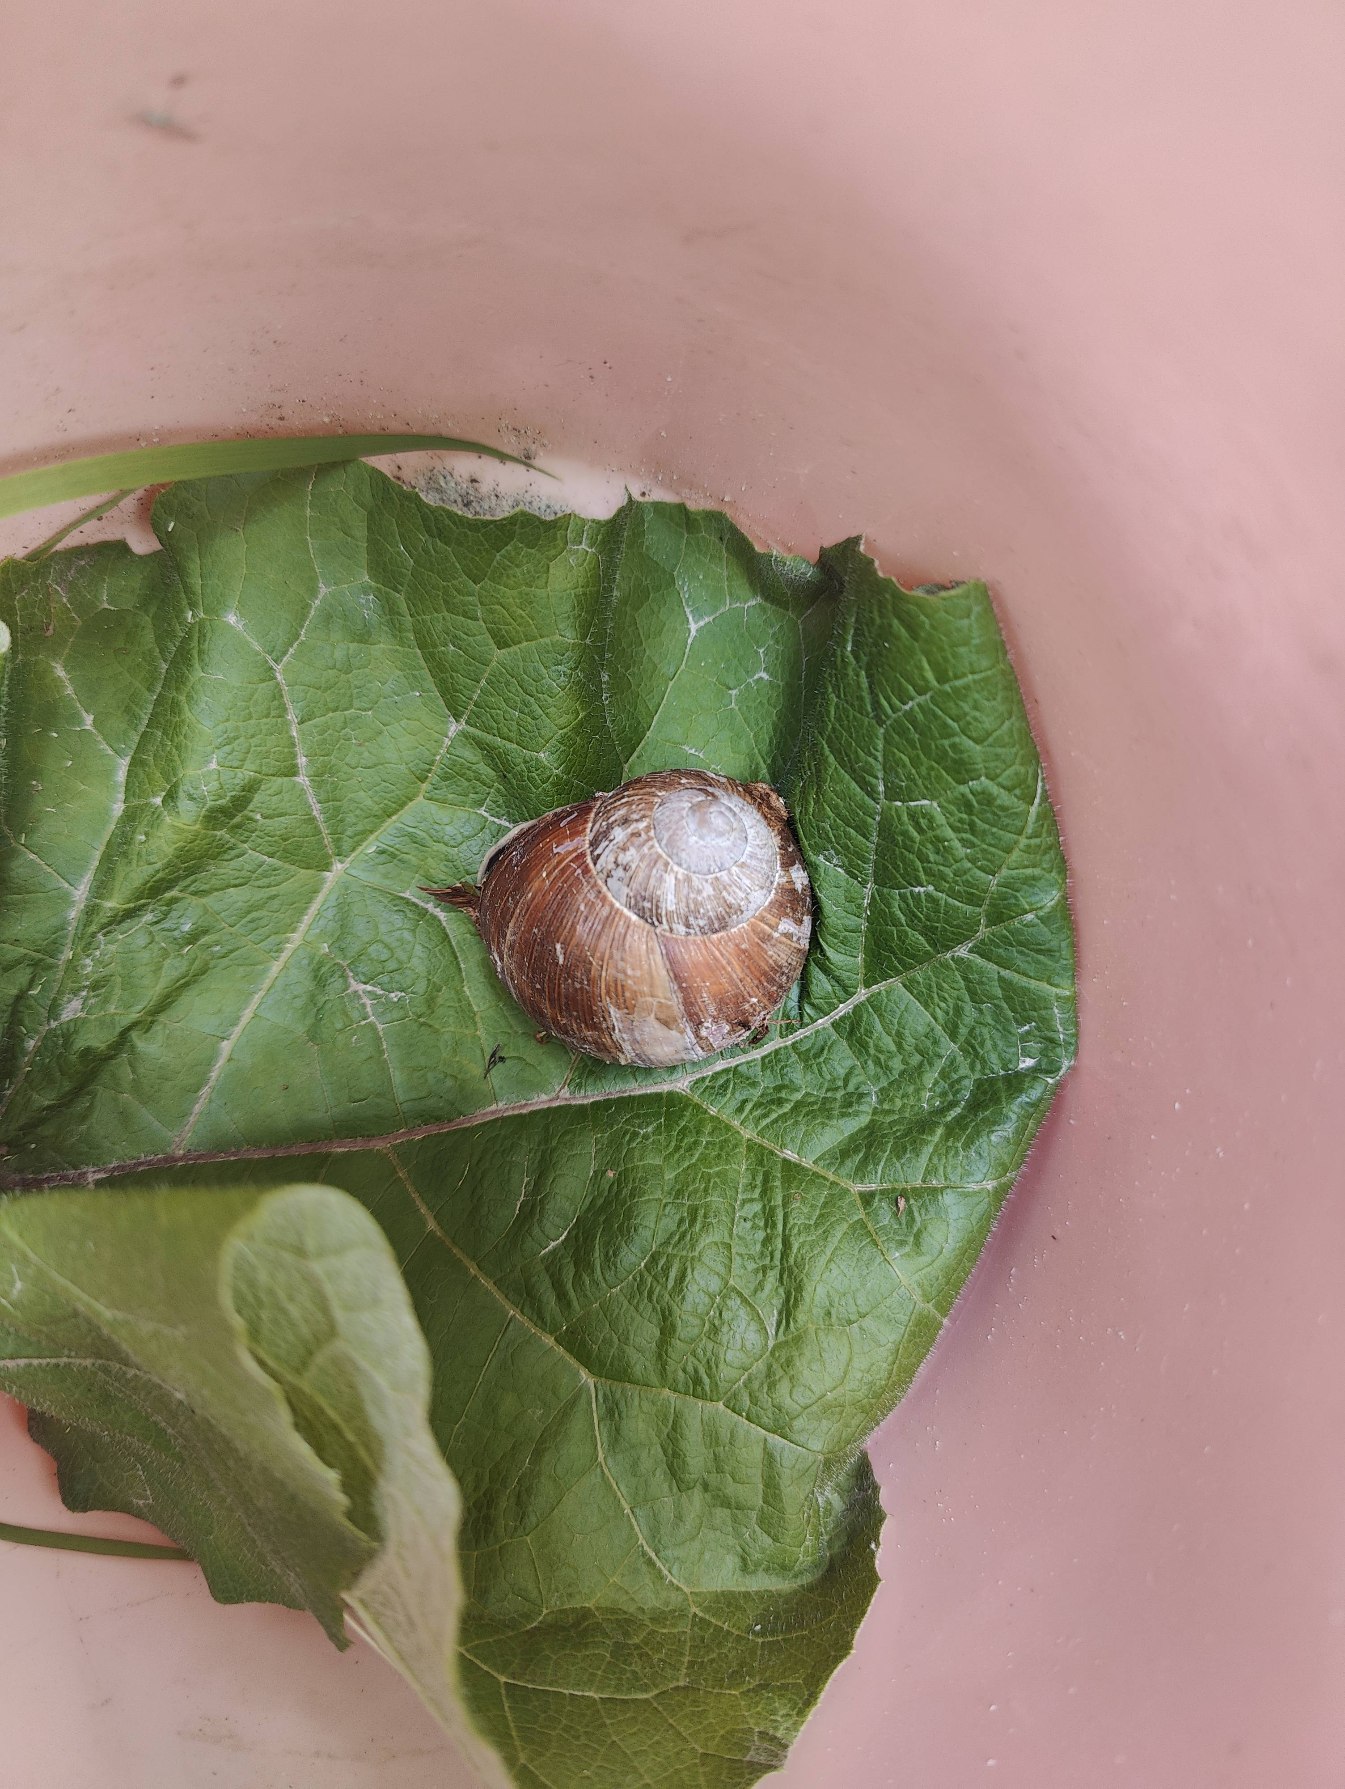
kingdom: Animalia
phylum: Mollusca
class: Gastropoda
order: Stylommatophora
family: Helicidae
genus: Helix
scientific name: Helix pomatia
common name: Vinbjergsnegl
